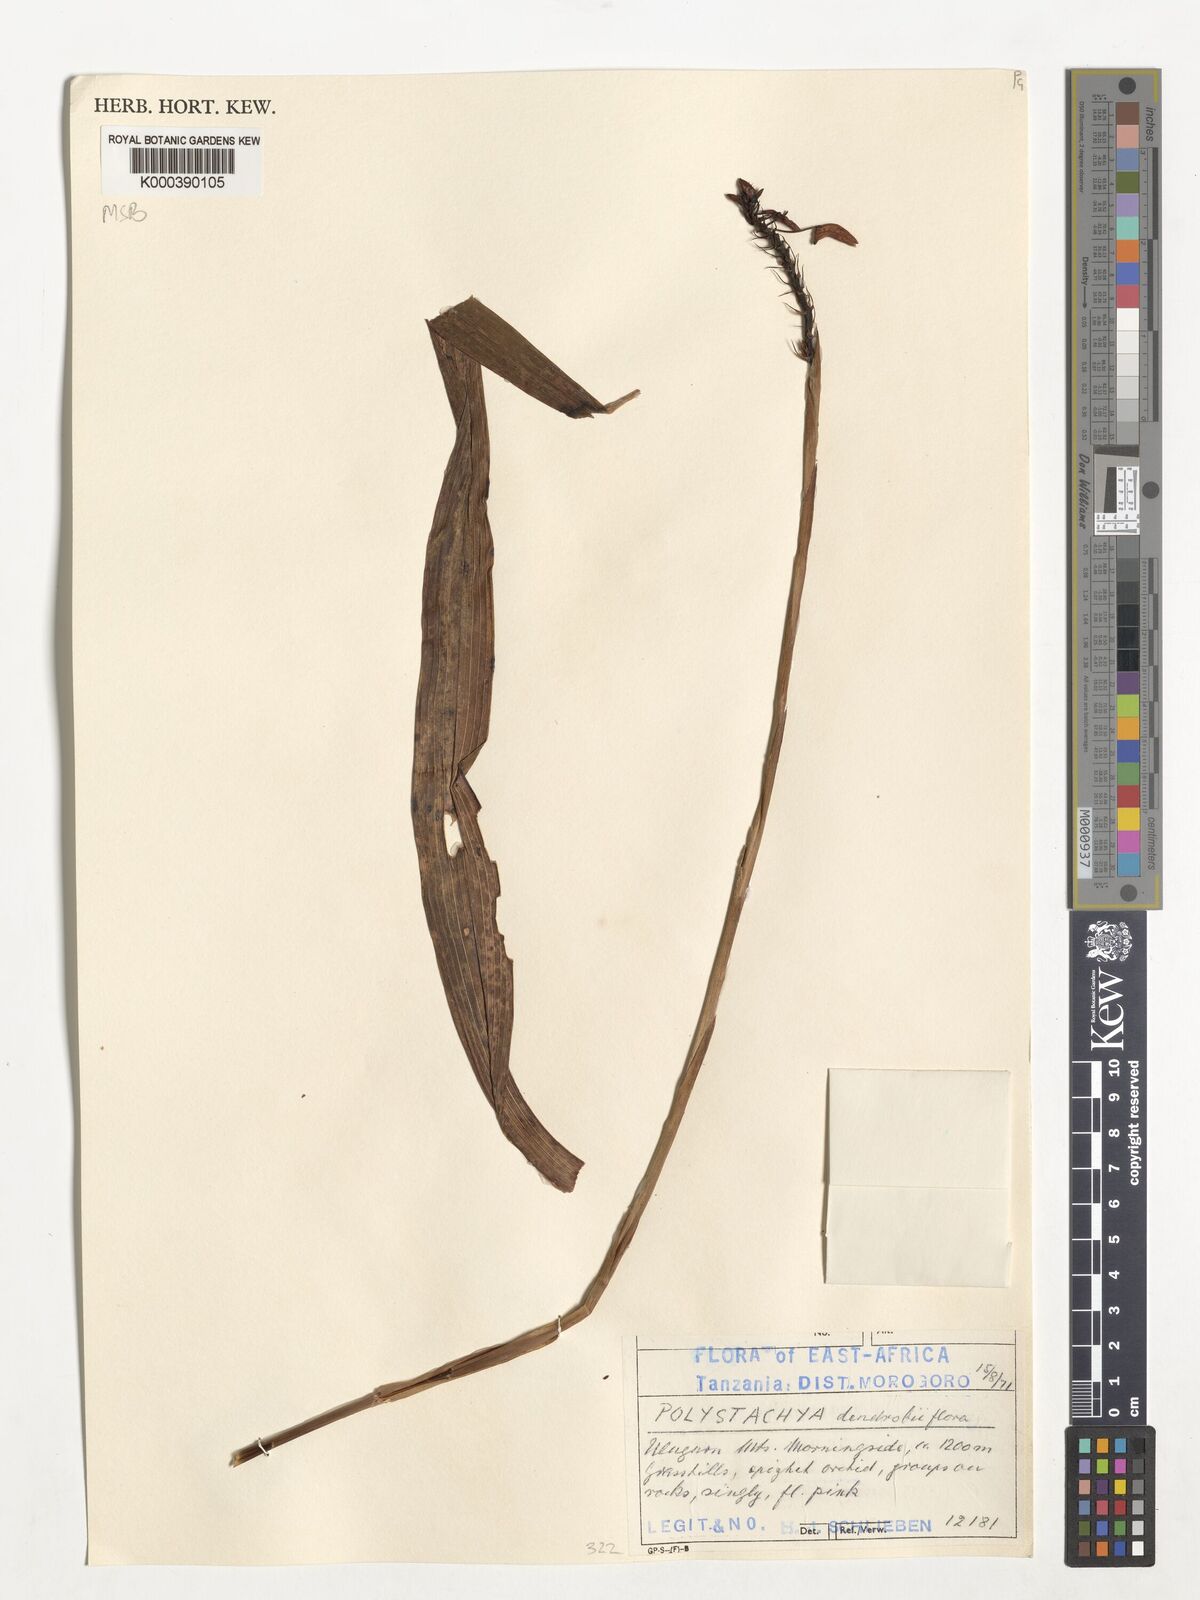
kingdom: Plantae
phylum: Tracheophyta
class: Liliopsida
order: Asparagales
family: Orchidaceae
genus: Polystachya
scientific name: Polystachya longiscapa
